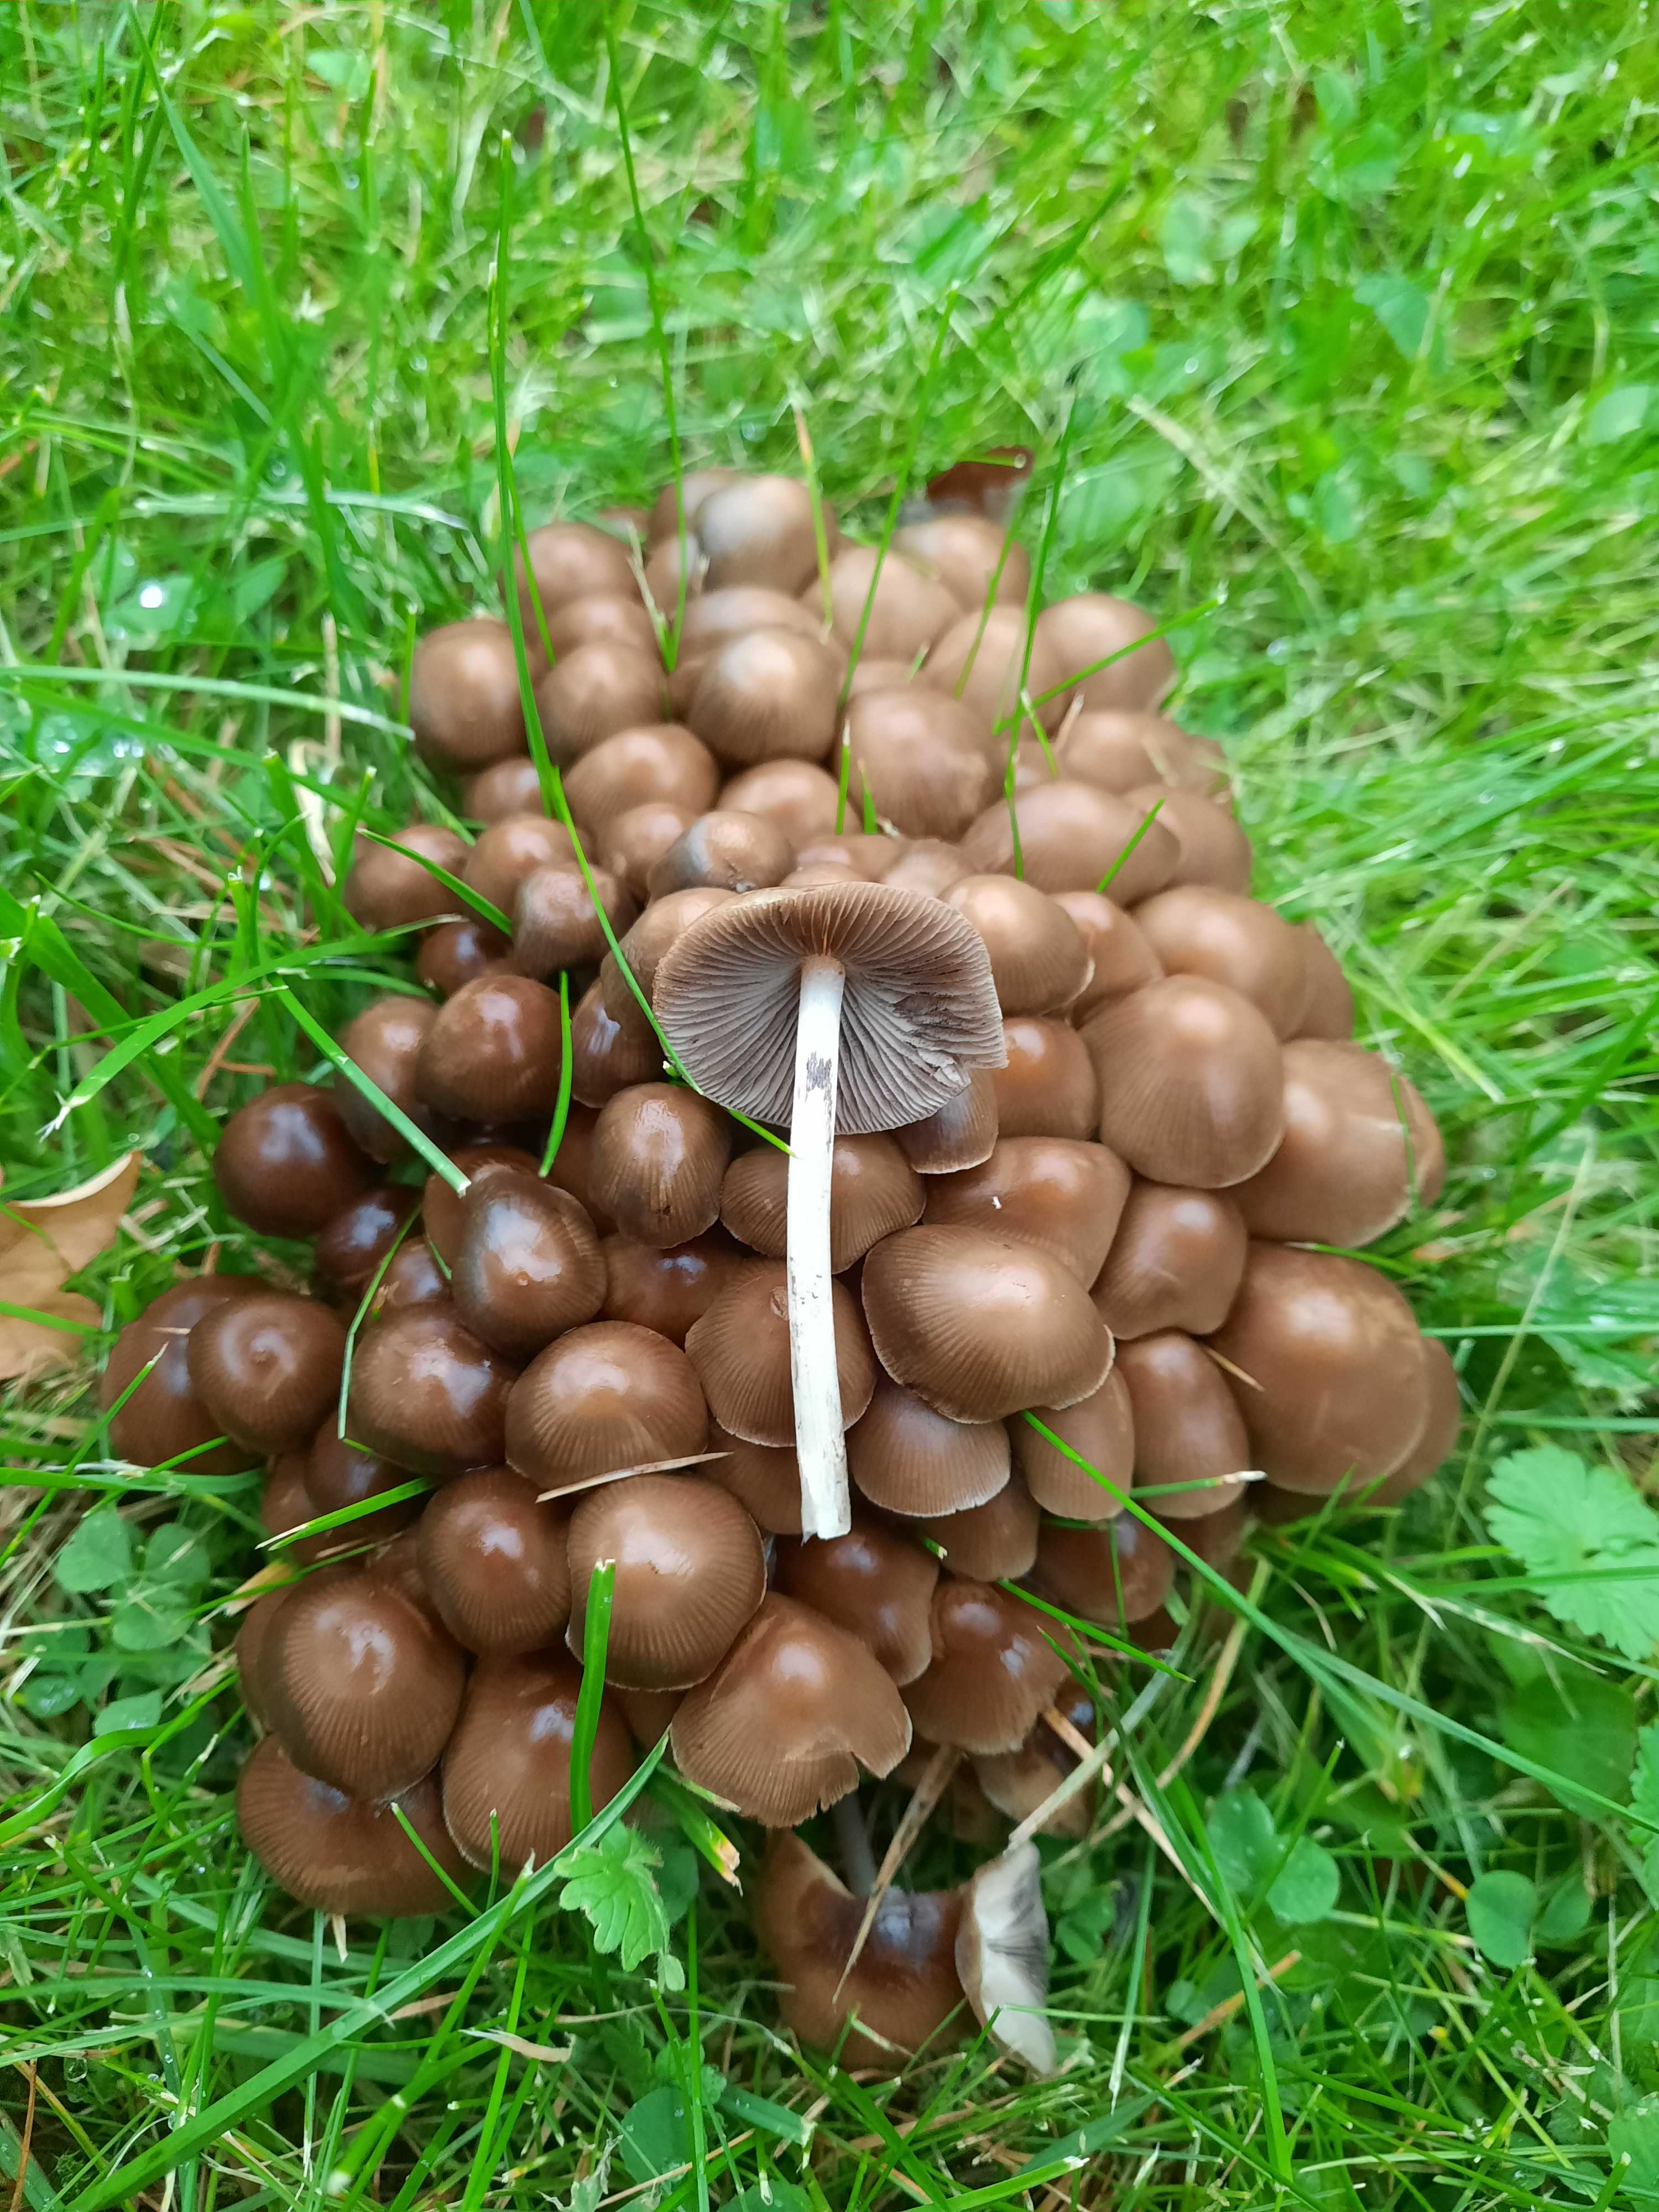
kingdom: Fungi
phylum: Basidiomycota
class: Agaricomycetes
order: Agaricales
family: Psathyrellaceae
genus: Britzelmayria
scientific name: Britzelmayria multipedata
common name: knippe-mørkhat
